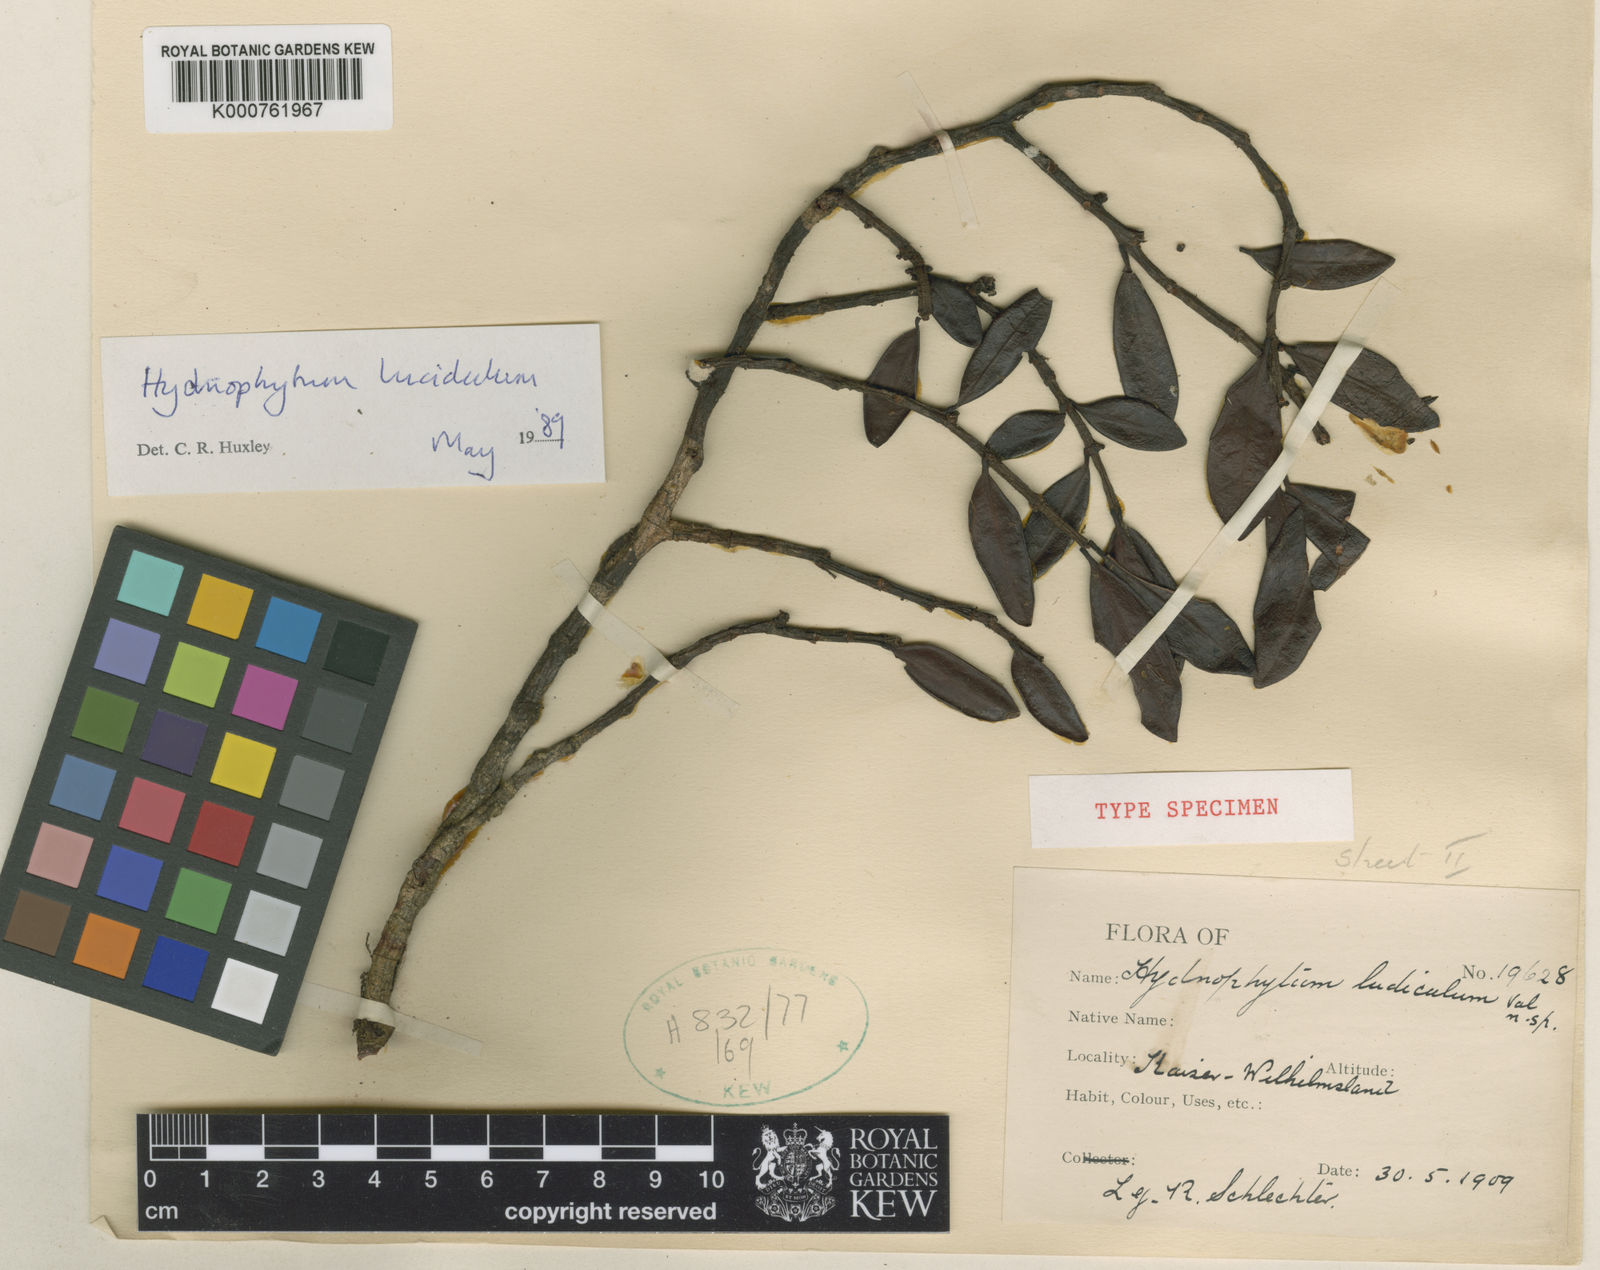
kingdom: Plantae
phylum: Tracheophyta
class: Magnoliopsida
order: Gentianales
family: Rubiaceae
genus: Hydnophytum
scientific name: Hydnophytum lucidulum
